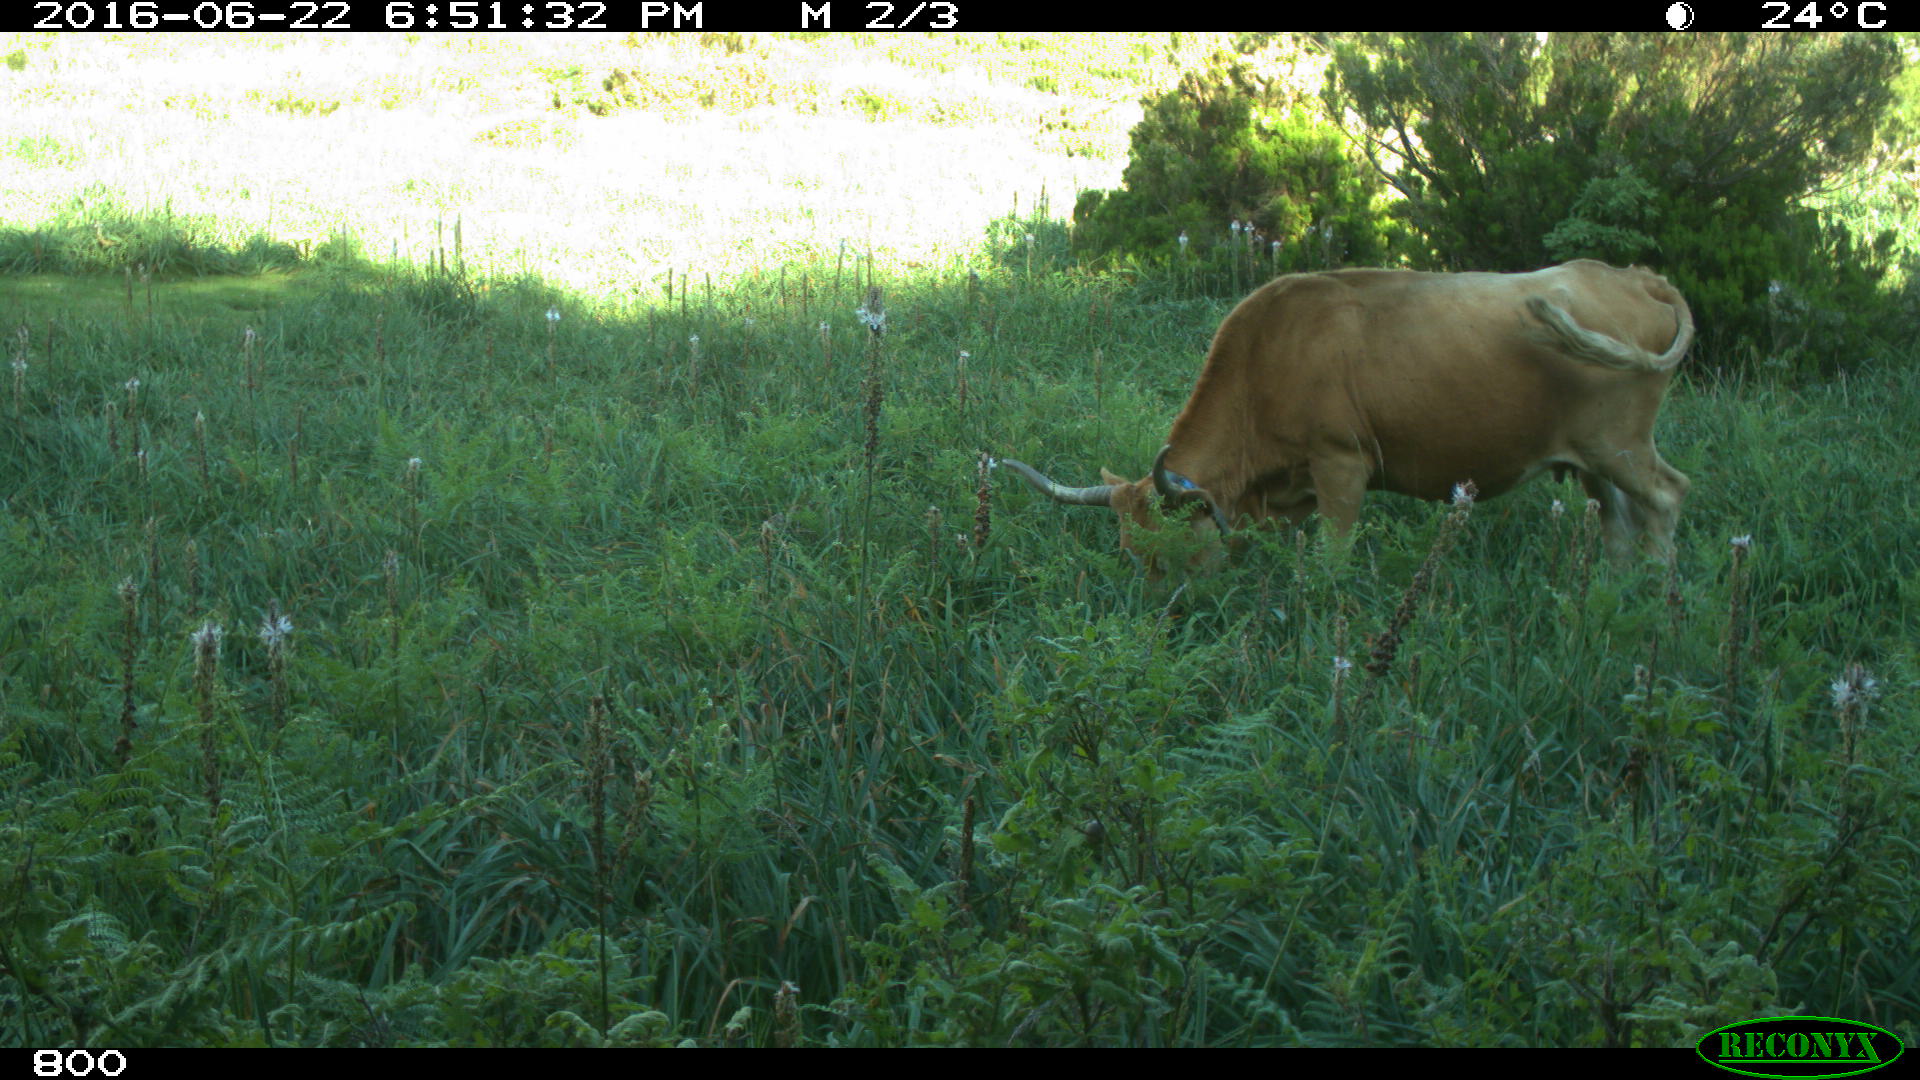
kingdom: Animalia
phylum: Chordata
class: Mammalia
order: Artiodactyla
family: Bovidae
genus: Bos
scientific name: Bos taurus
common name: Domesticated cattle
